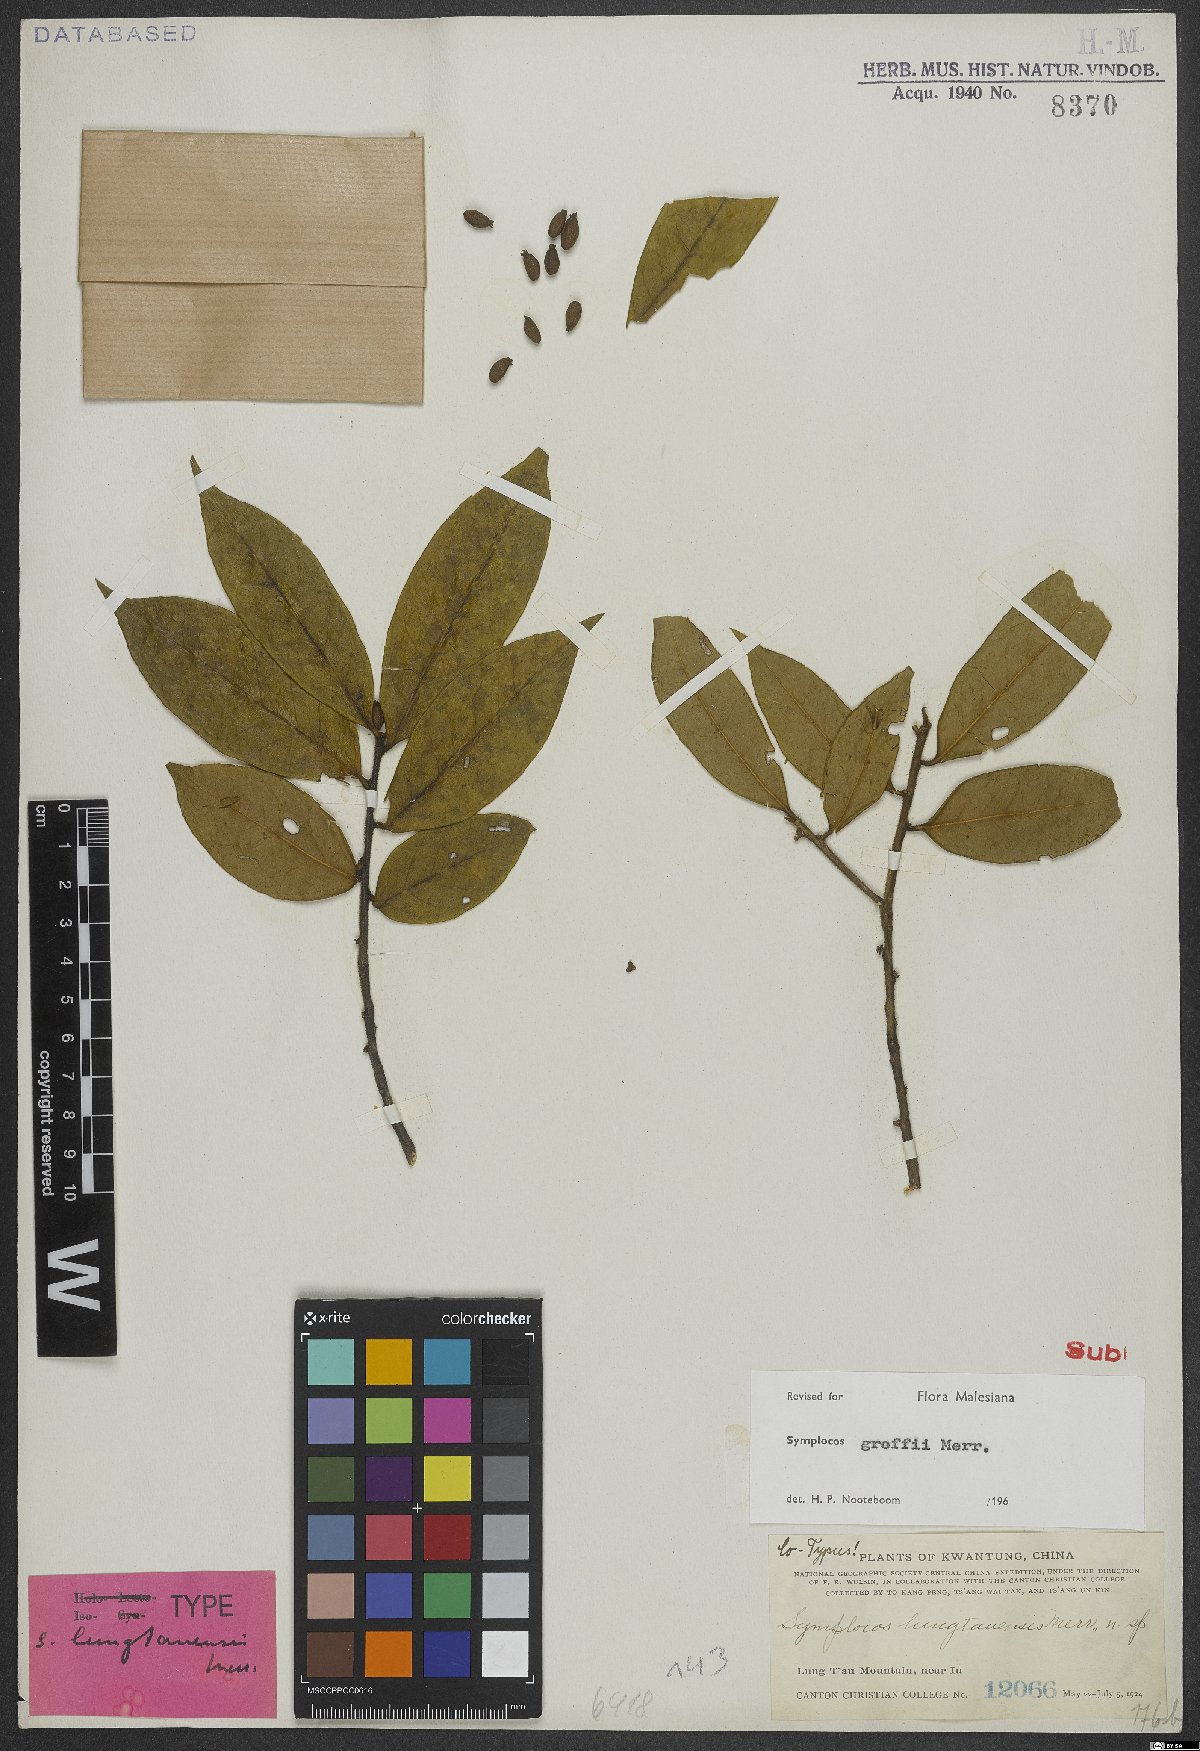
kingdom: Plantae
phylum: Tracheophyta
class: Magnoliopsida
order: Ericales
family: Symplocaceae
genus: Symplocos
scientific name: Symplocos groffii
